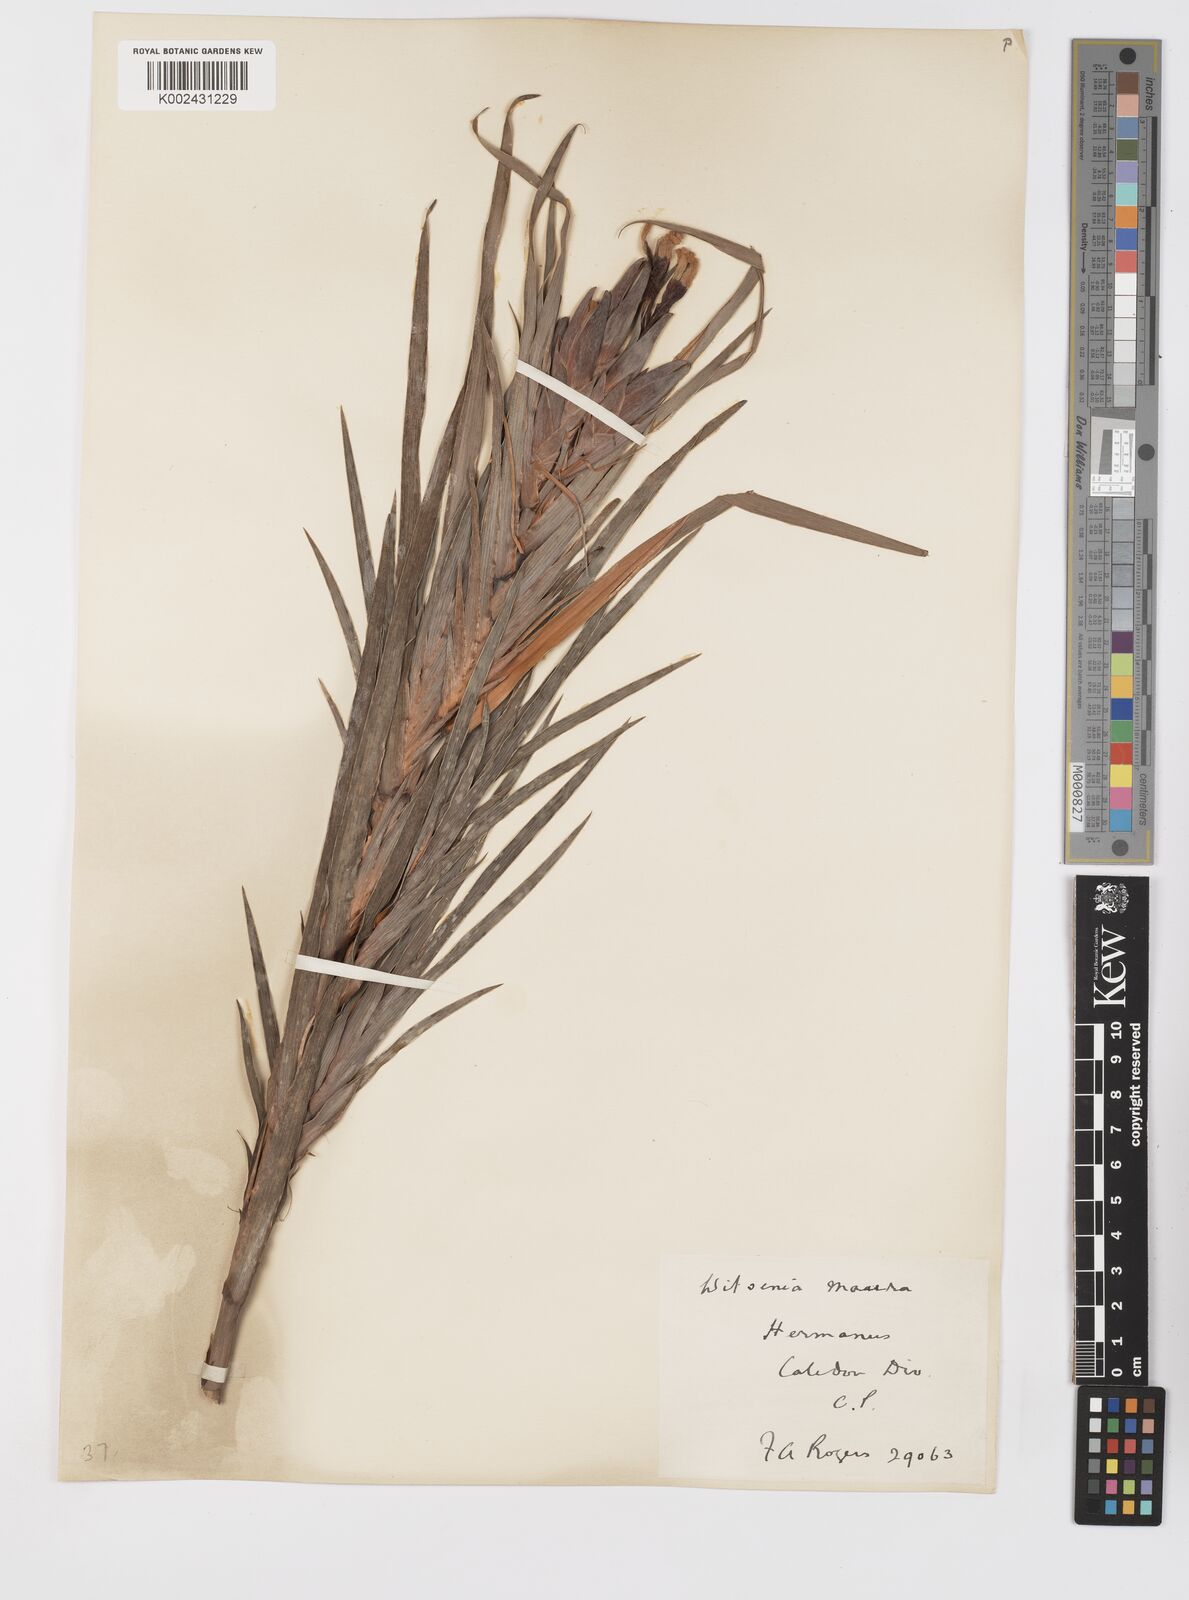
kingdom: Plantae
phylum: Tracheophyta
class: Liliopsida
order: Asparagales
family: Iridaceae
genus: Witsenia
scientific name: Witsenia maura
